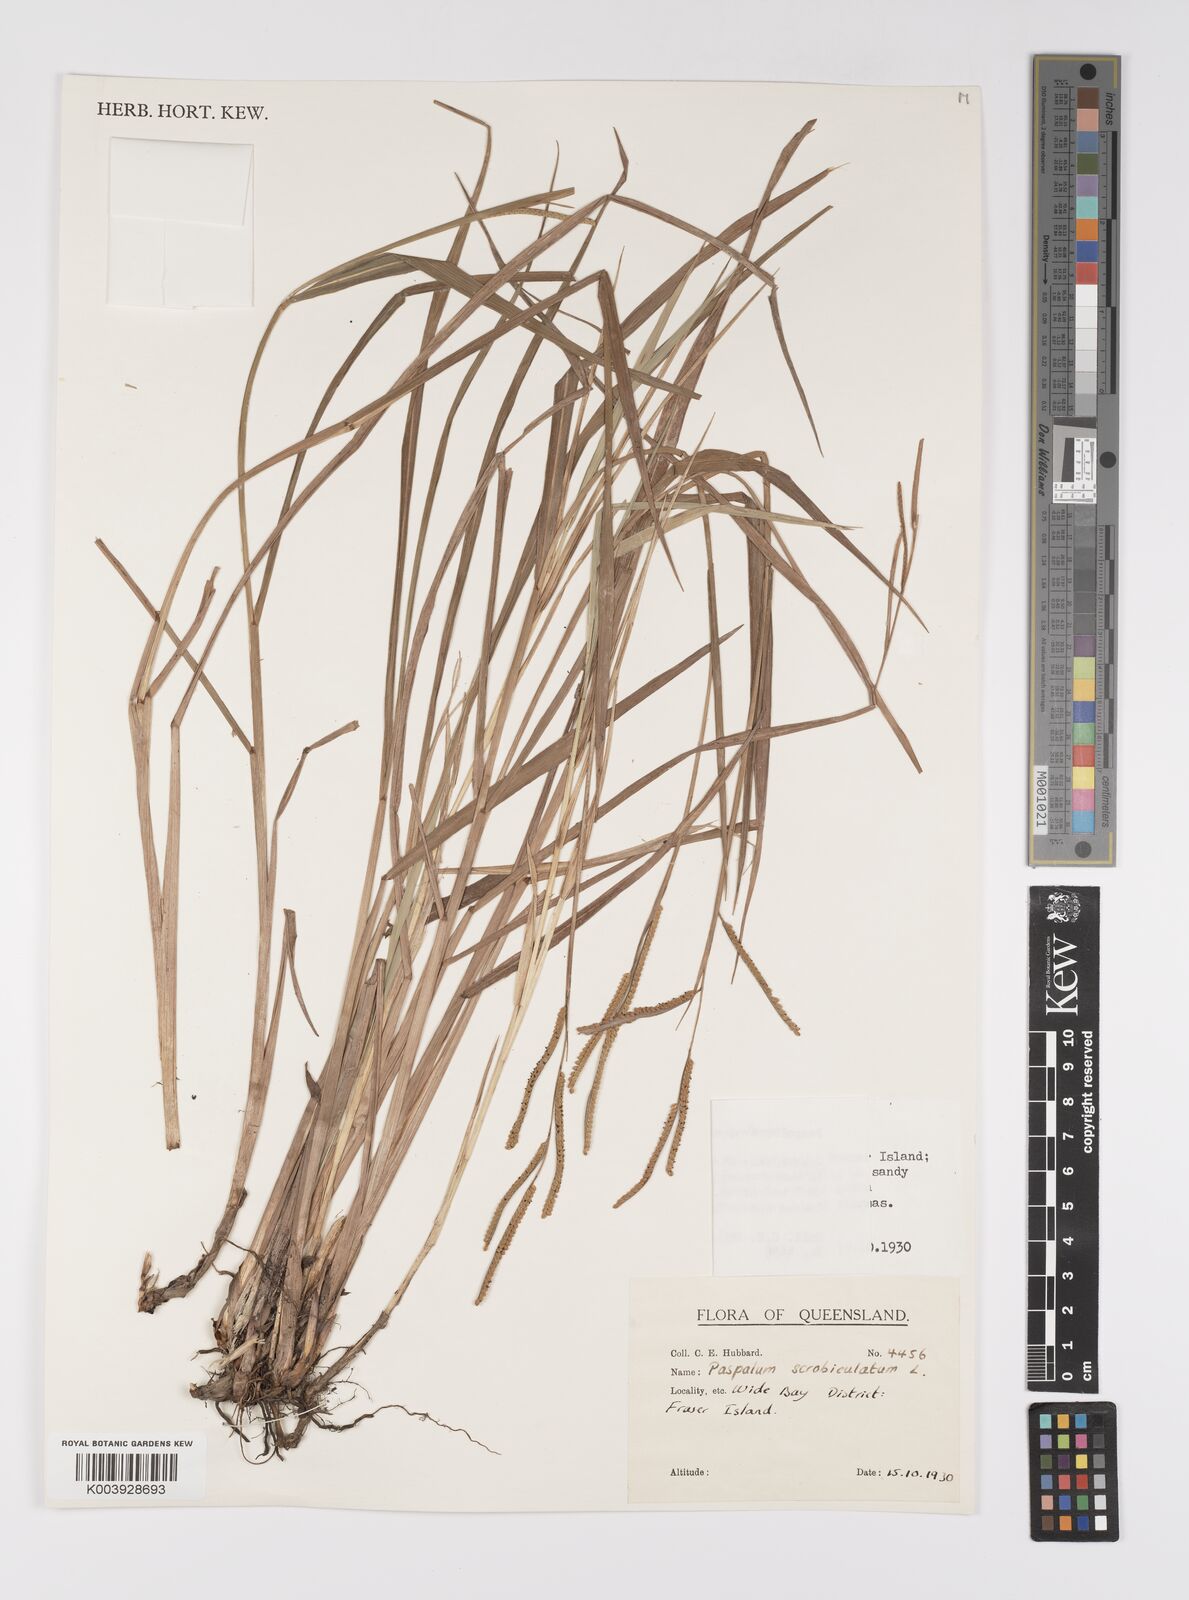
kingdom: Plantae
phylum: Tracheophyta
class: Liliopsida
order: Poales
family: Poaceae
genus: Paspalum
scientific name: Paspalum scrobiculatum
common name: Kodo millet
